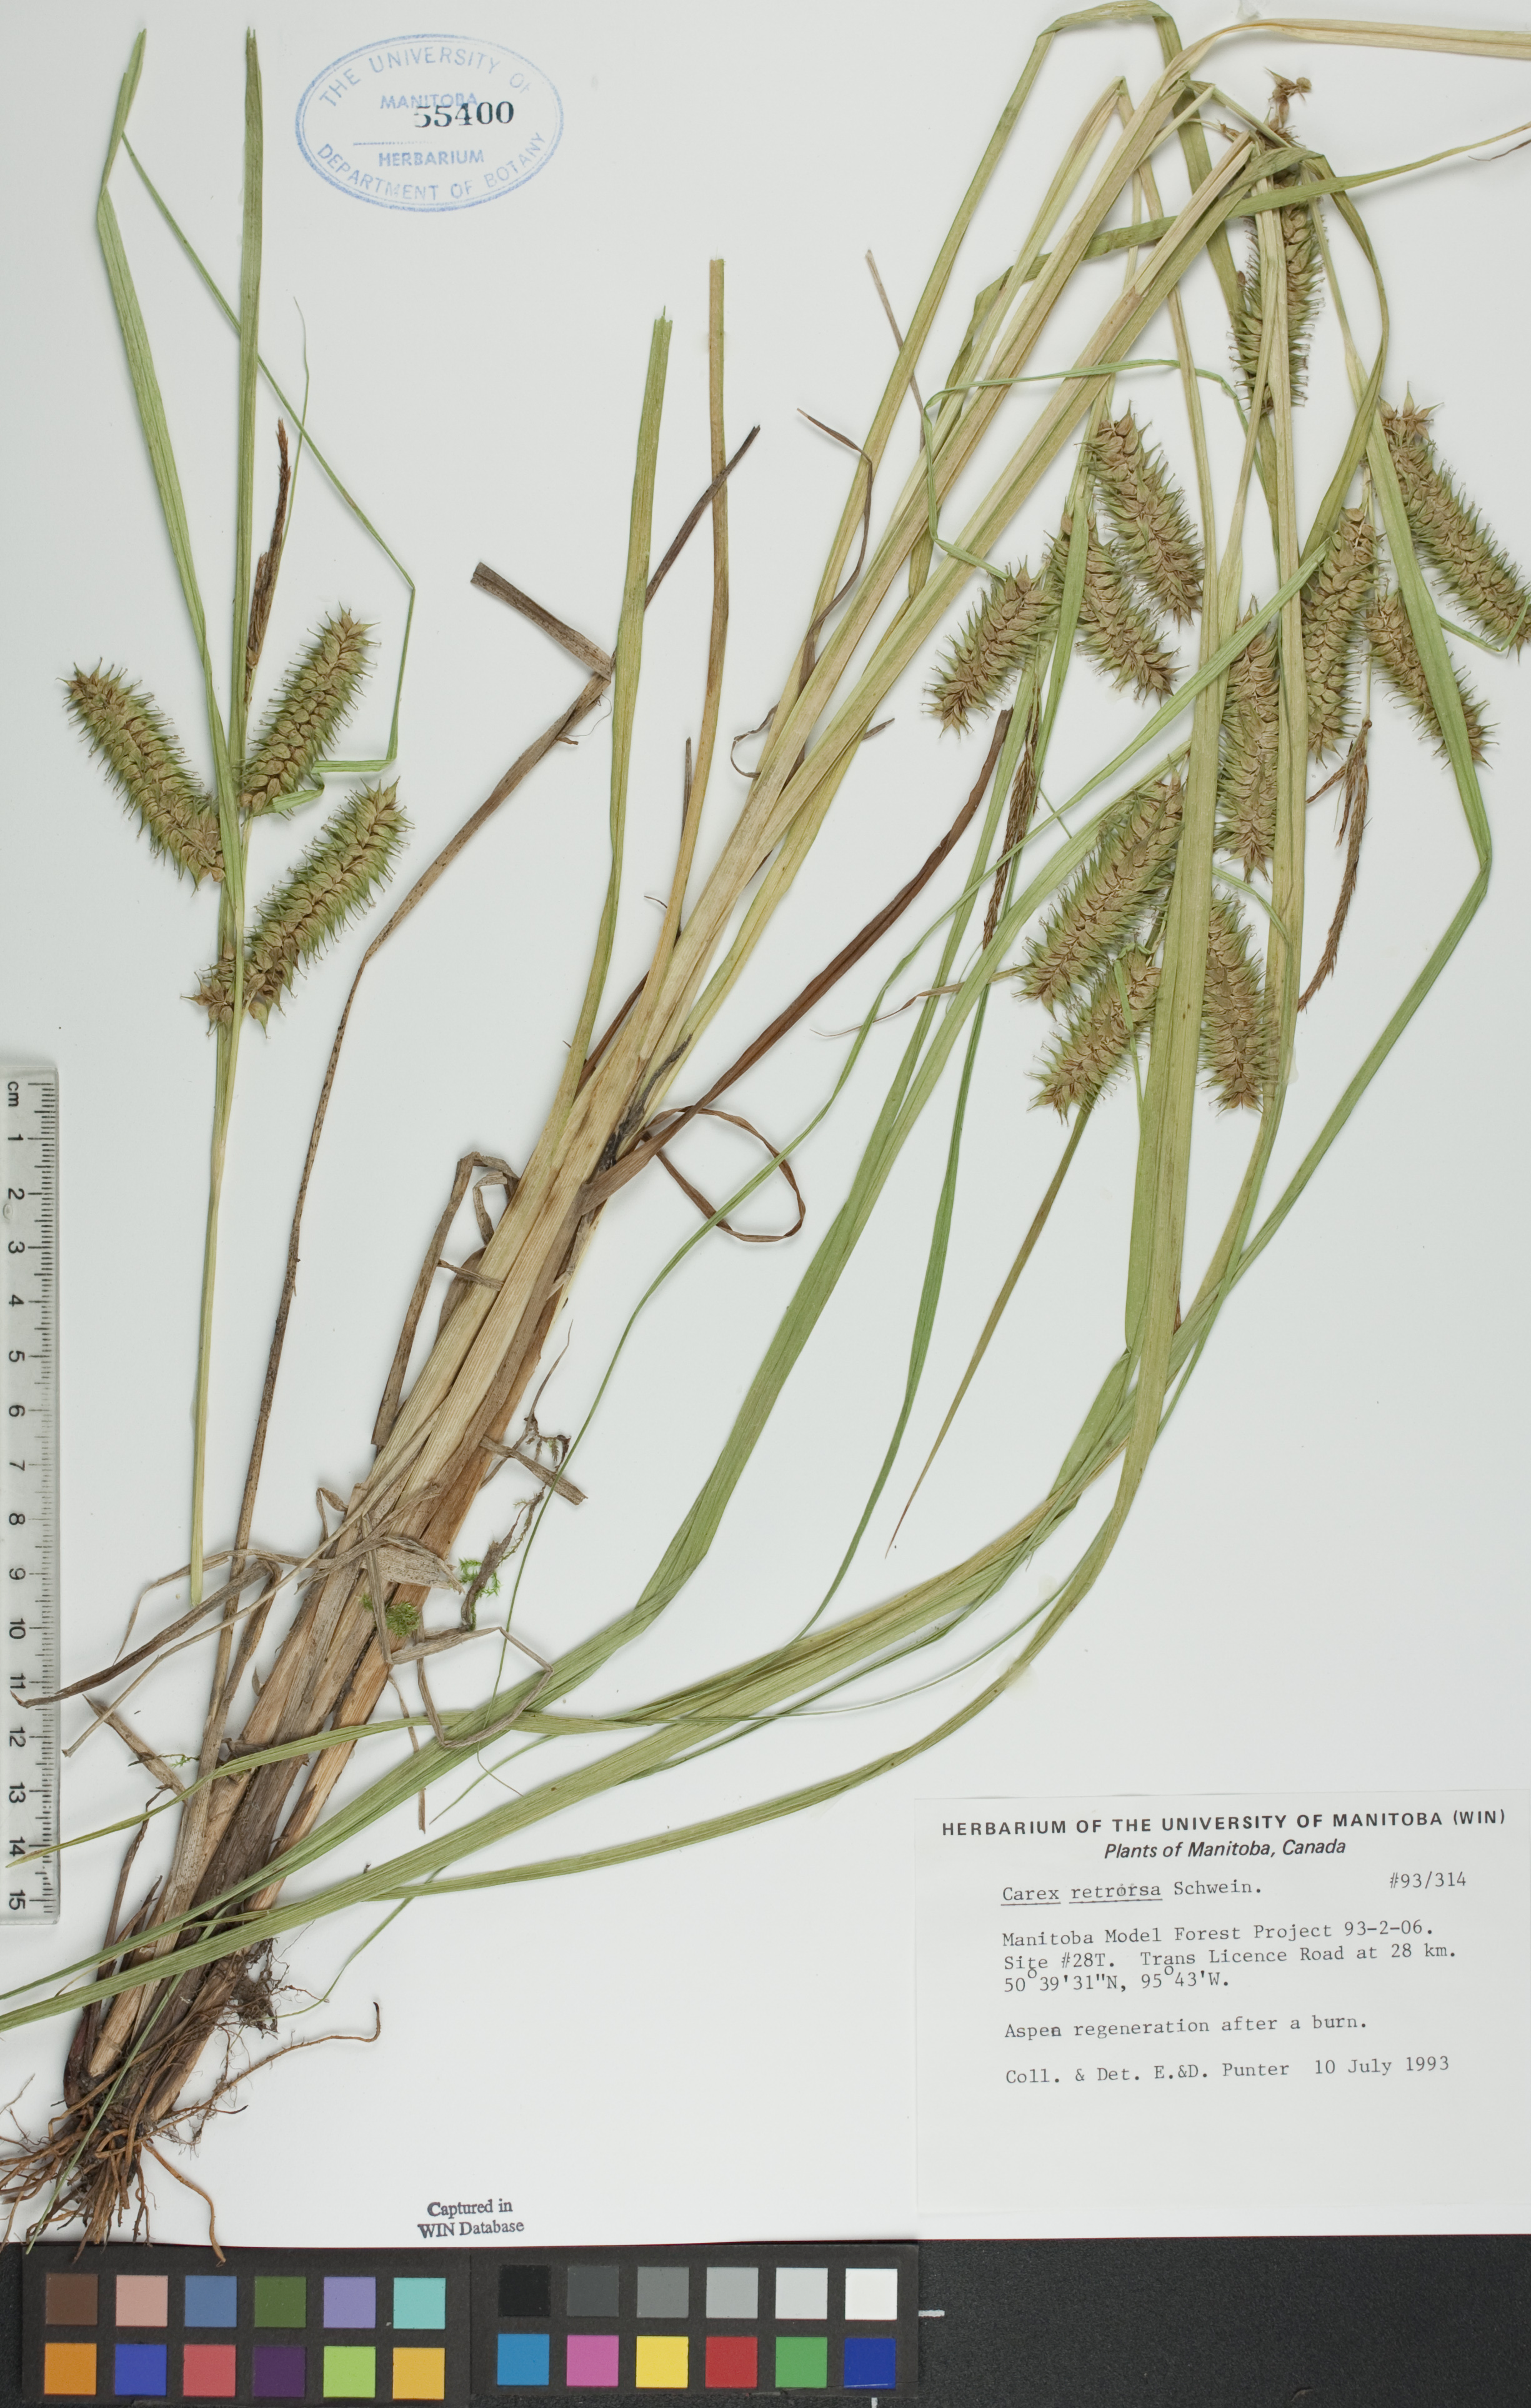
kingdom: Plantae
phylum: Tracheophyta
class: Liliopsida
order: Poales
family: Cyperaceae
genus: Carex
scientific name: Carex retrorsa
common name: Knot-sheath sedge
